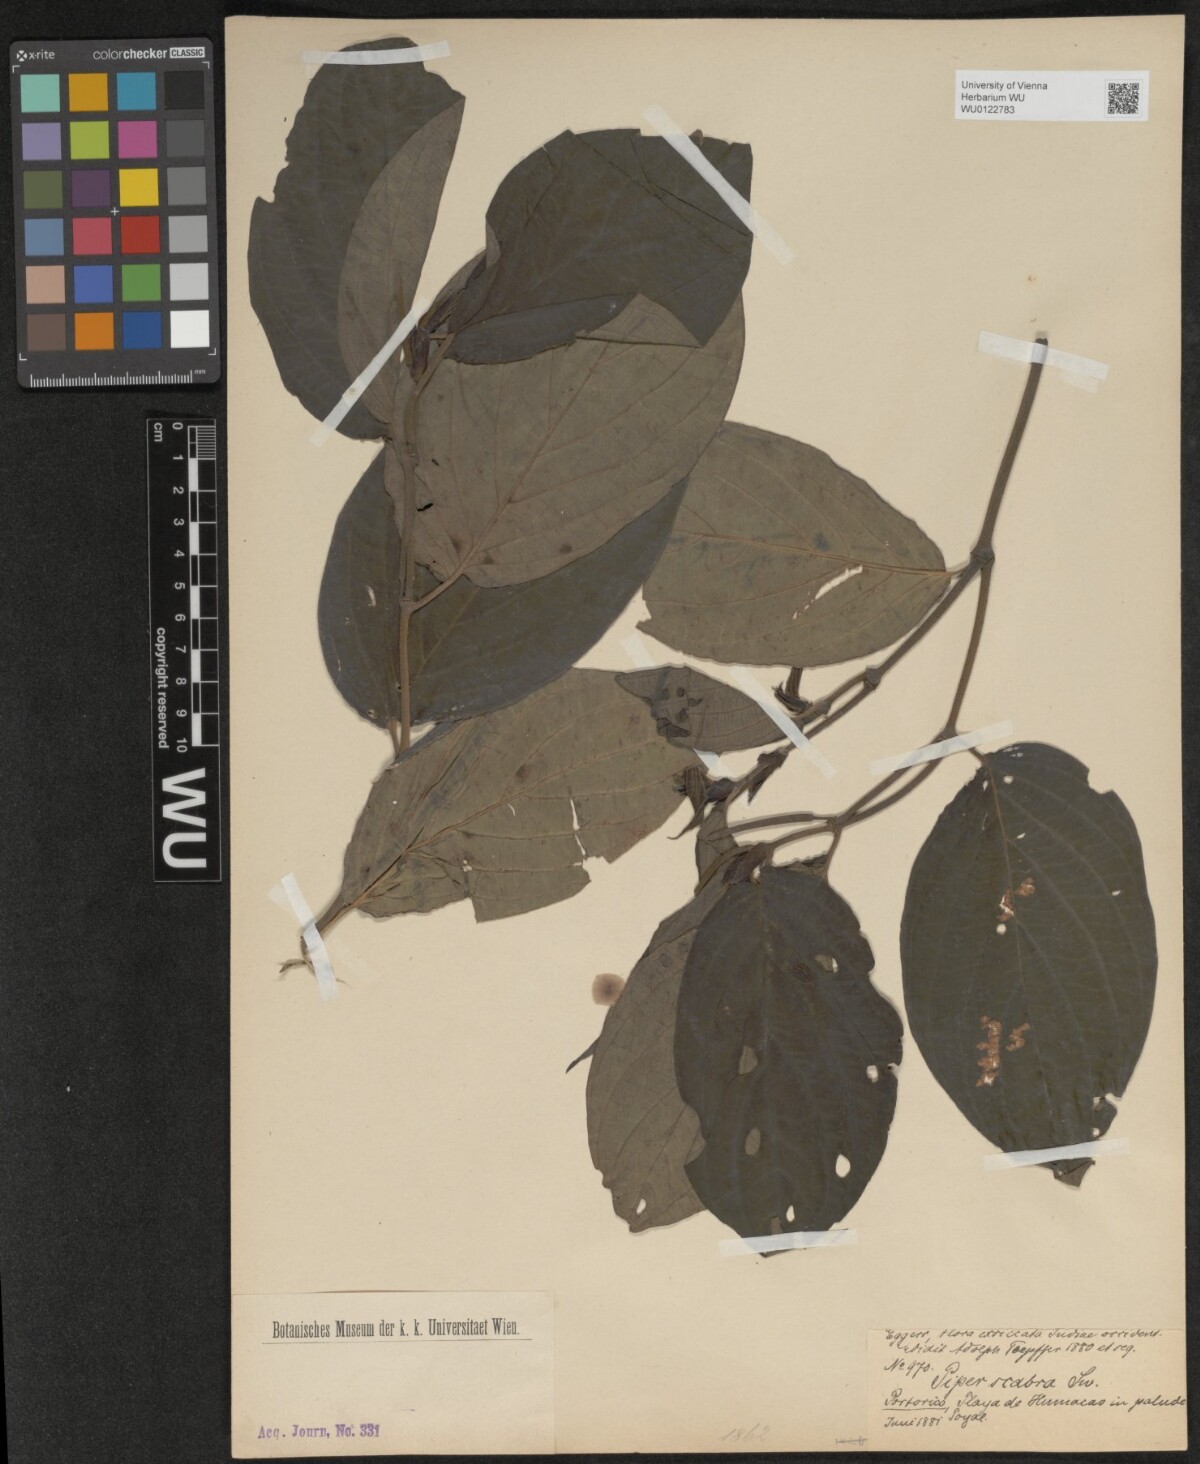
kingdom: Plantae
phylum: Tracheophyta
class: Magnoliopsida
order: Piperales
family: Piperaceae
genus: Piper
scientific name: Piper hispidum
